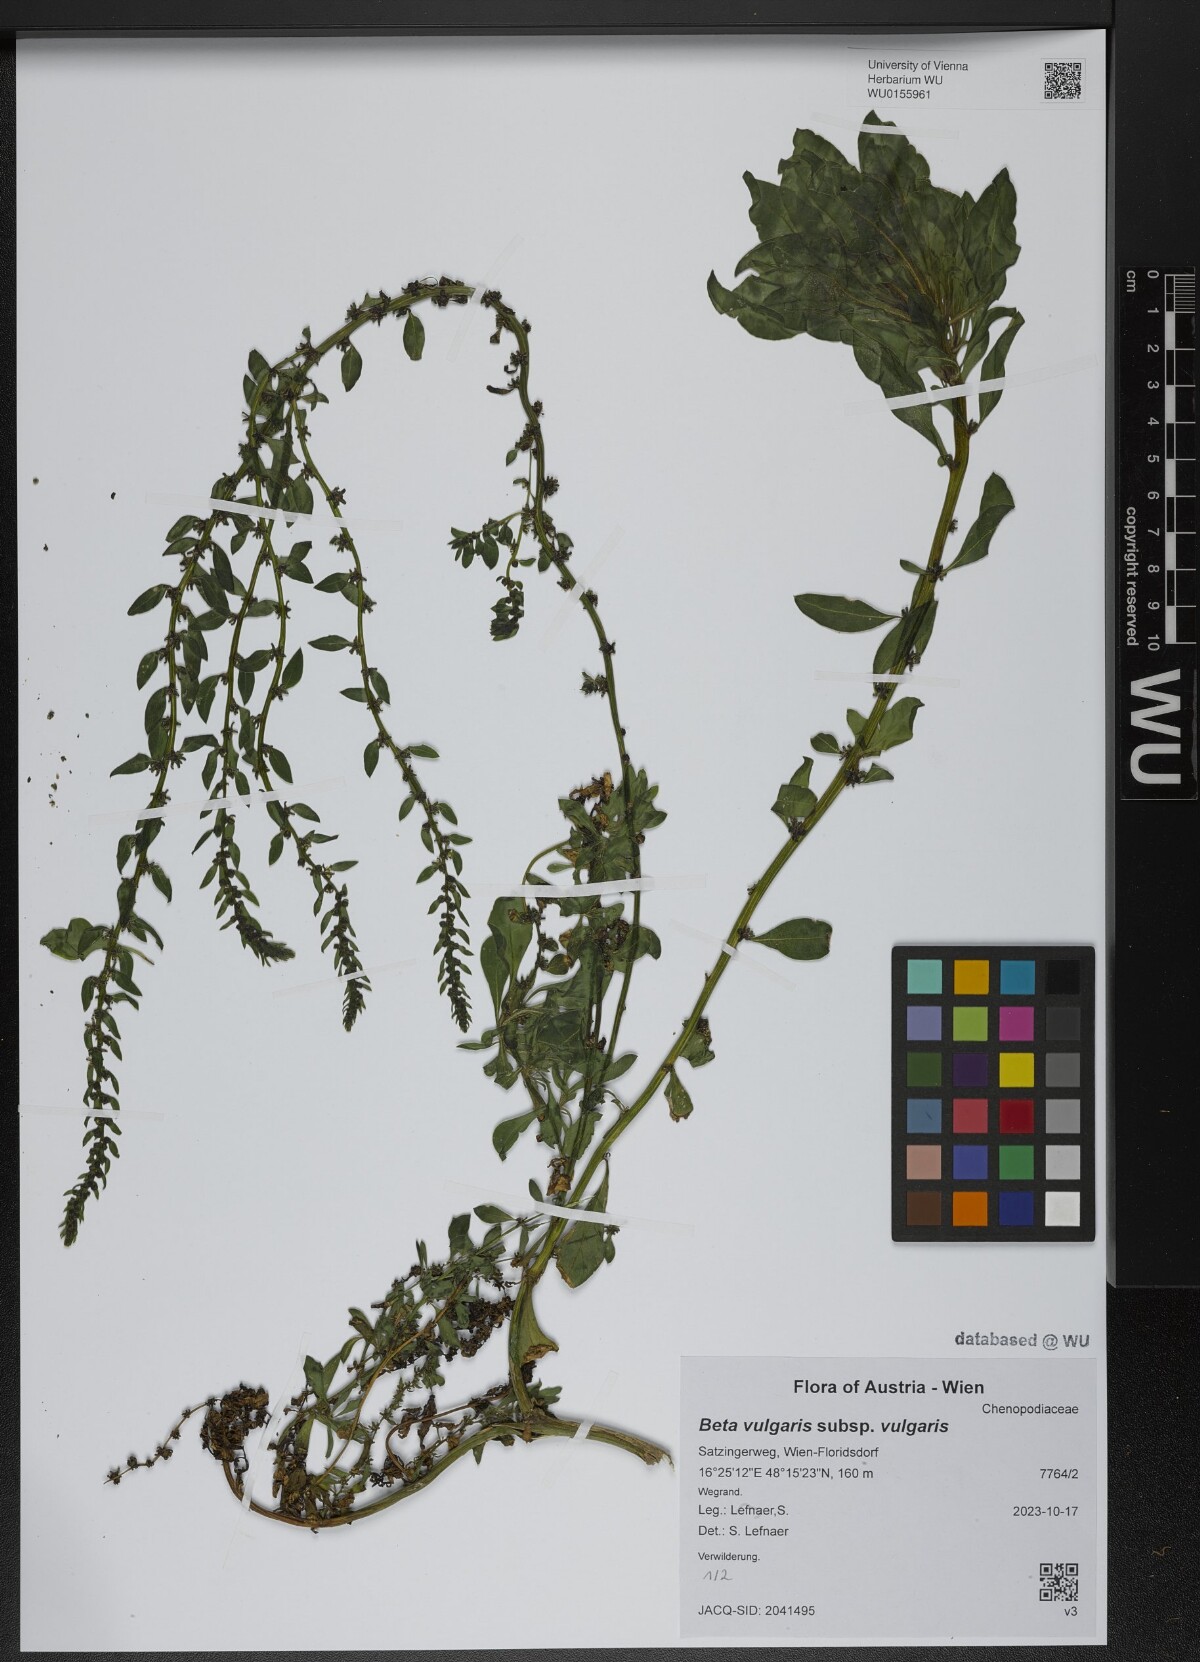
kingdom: Plantae
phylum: Tracheophyta
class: Magnoliopsida
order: Caryophyllales
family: Amaranthaceae
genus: Beta
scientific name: Beta vulgaris
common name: Beet
